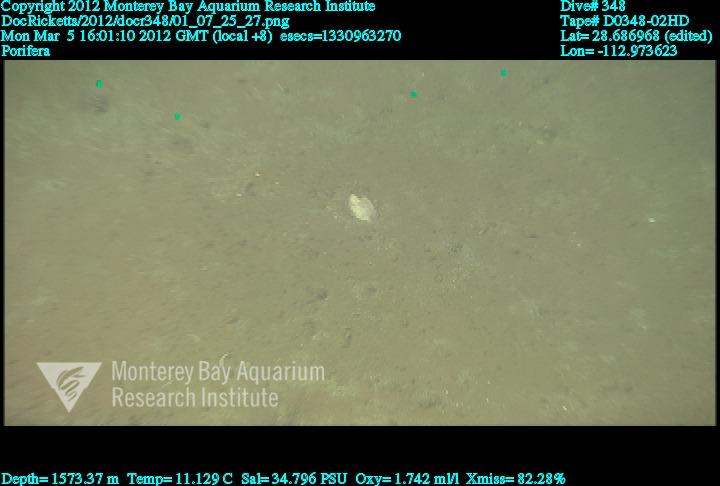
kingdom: Animalia
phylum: Porifera
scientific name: Porifera
